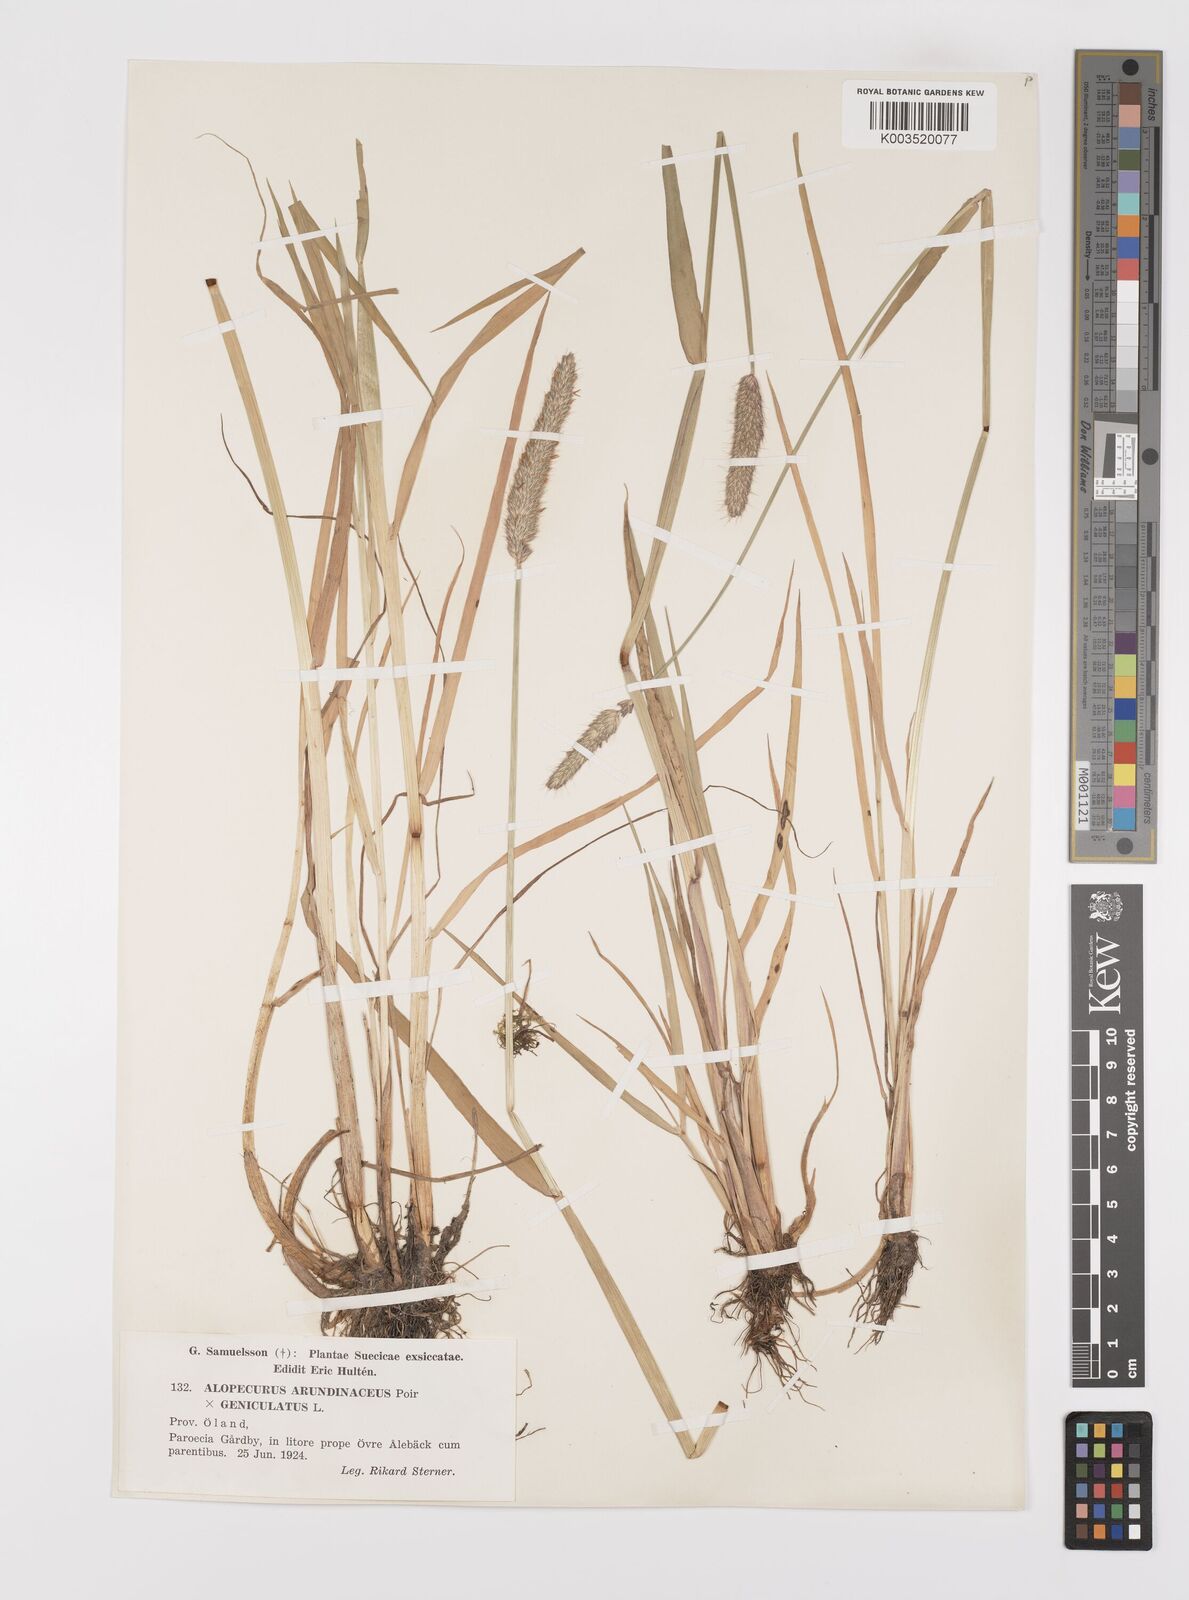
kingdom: Plantae
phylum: Tracheophyta
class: Liliopsida
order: Poales
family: Poaceae
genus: Alopecurus
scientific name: Alopecurus arundinaceus
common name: Creeping meadow foxtail
